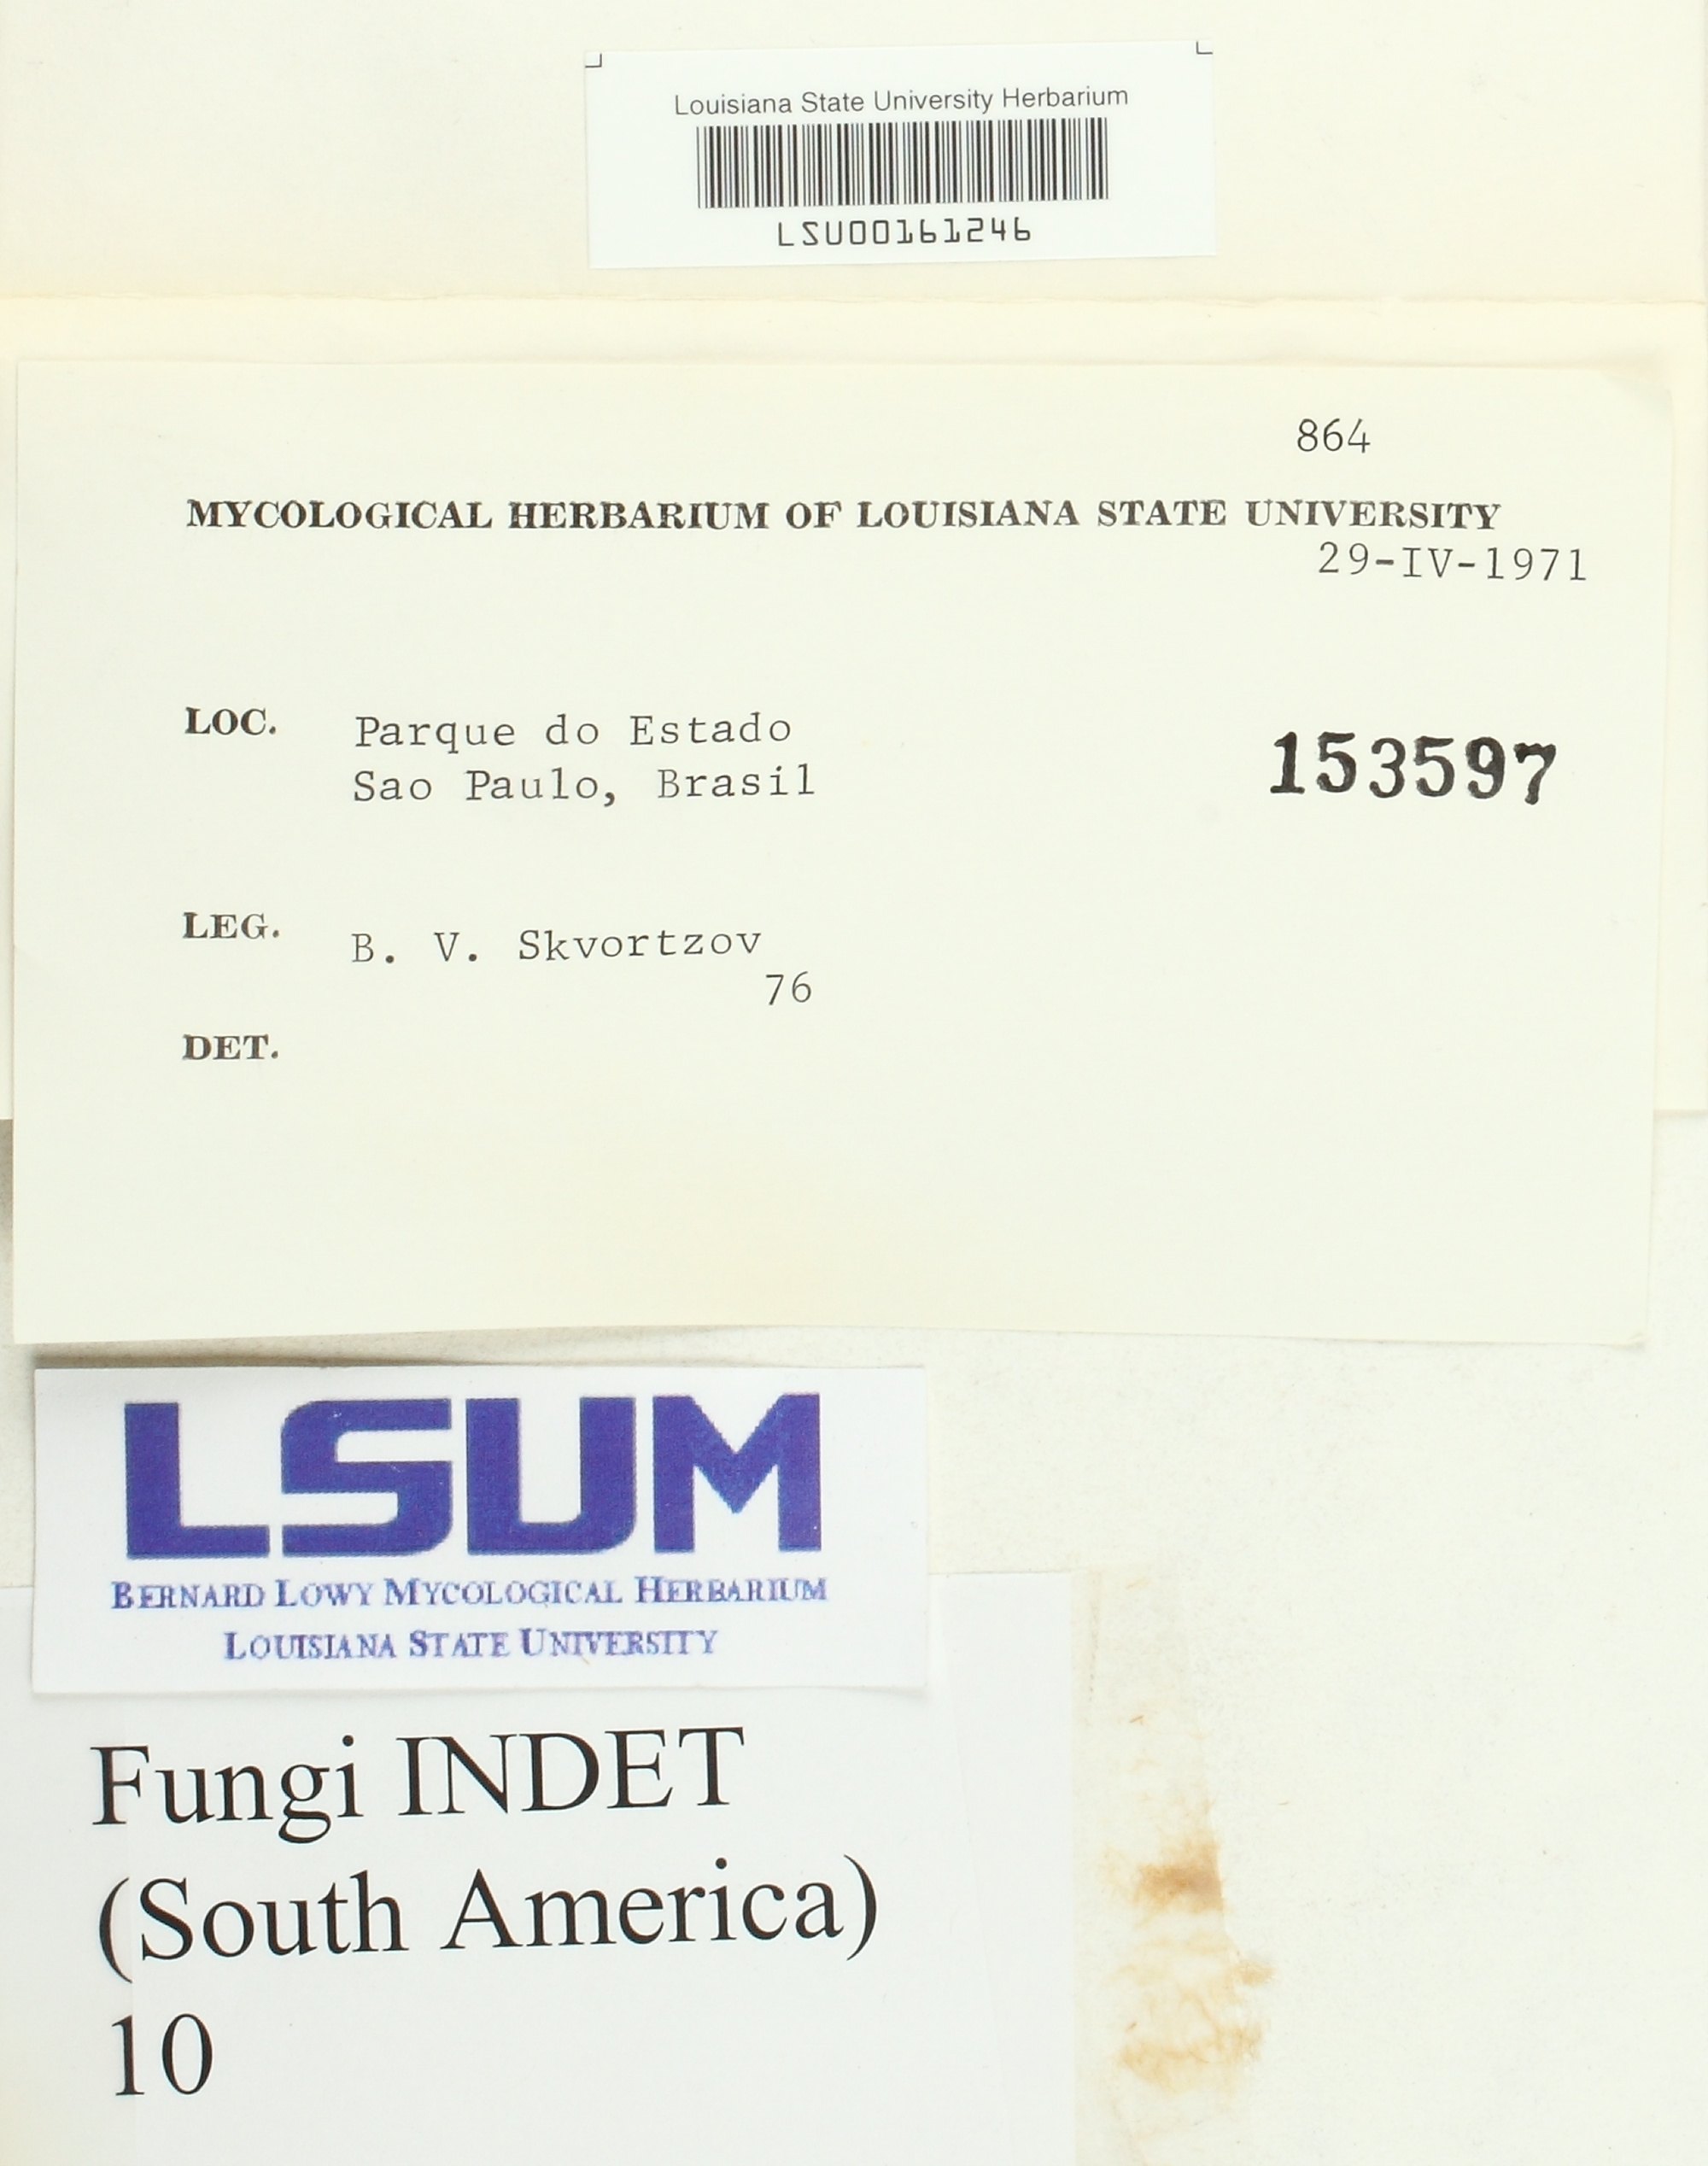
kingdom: Fungi
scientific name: Fungi
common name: Fungi
